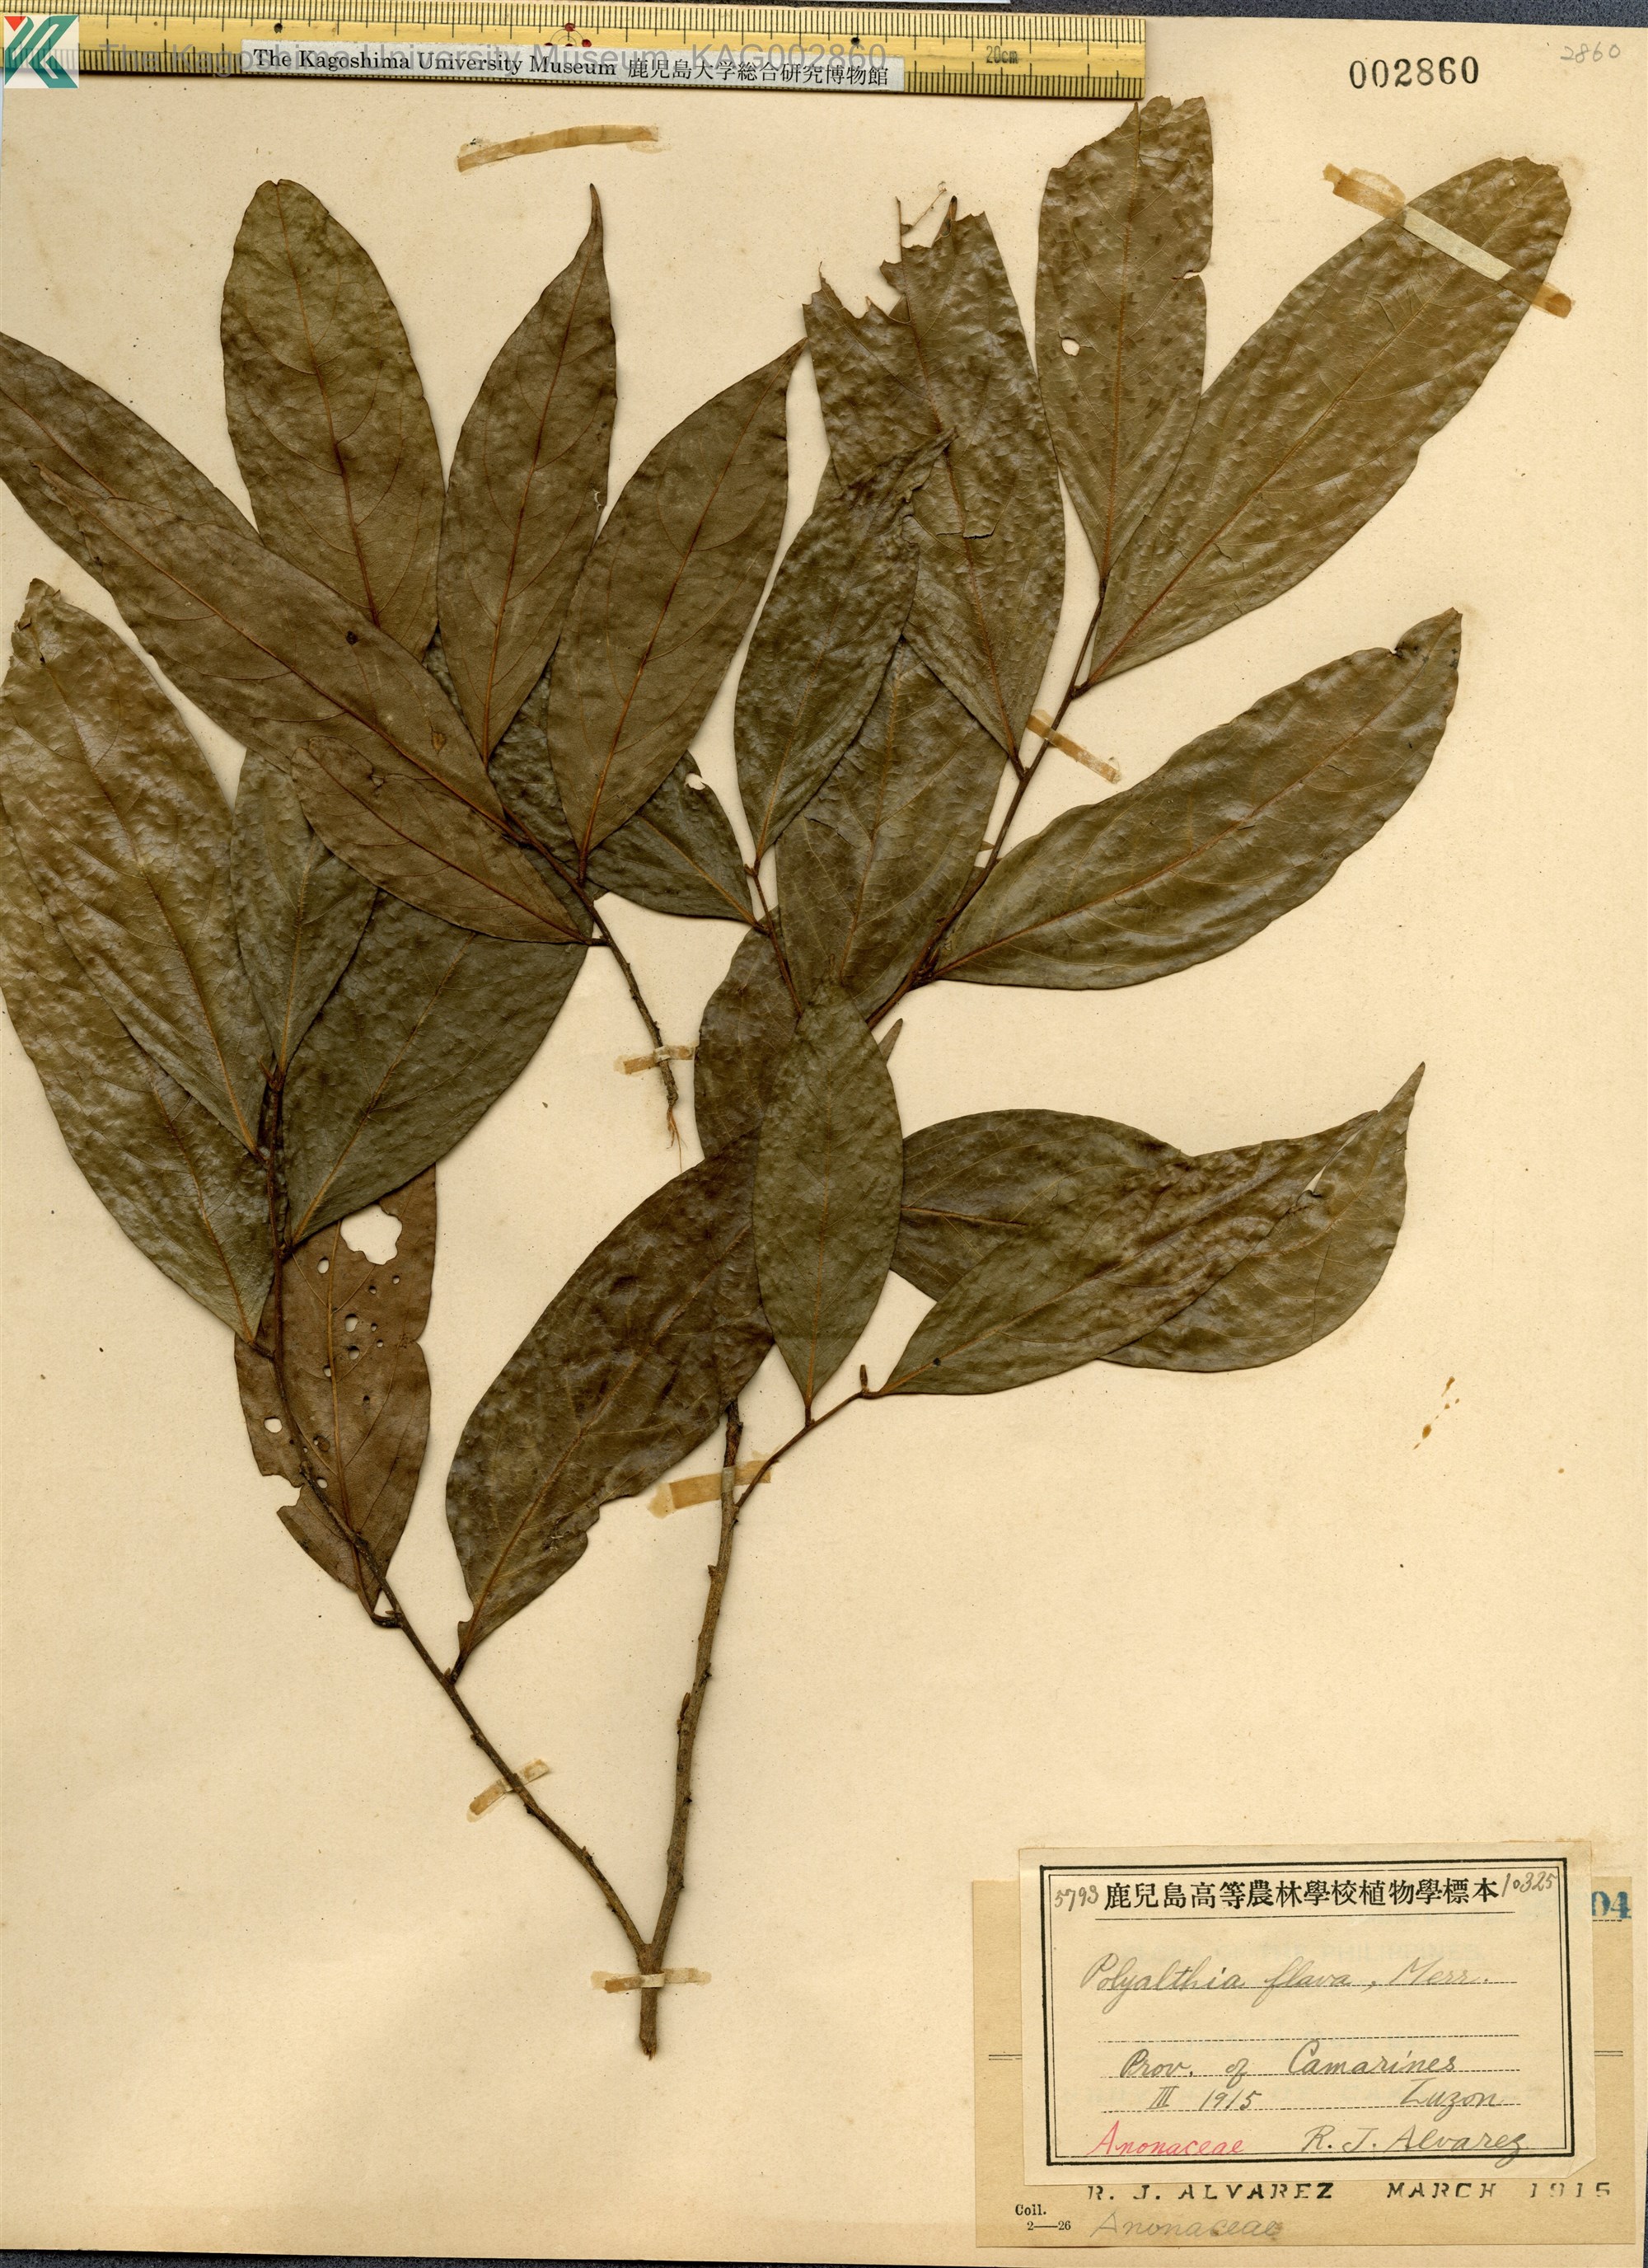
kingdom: Plantae
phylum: Tracheophyta
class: Magnoliopsida
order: Magnoliales
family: Annonaceae
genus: Polyalthia
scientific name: Polyalthia flava
